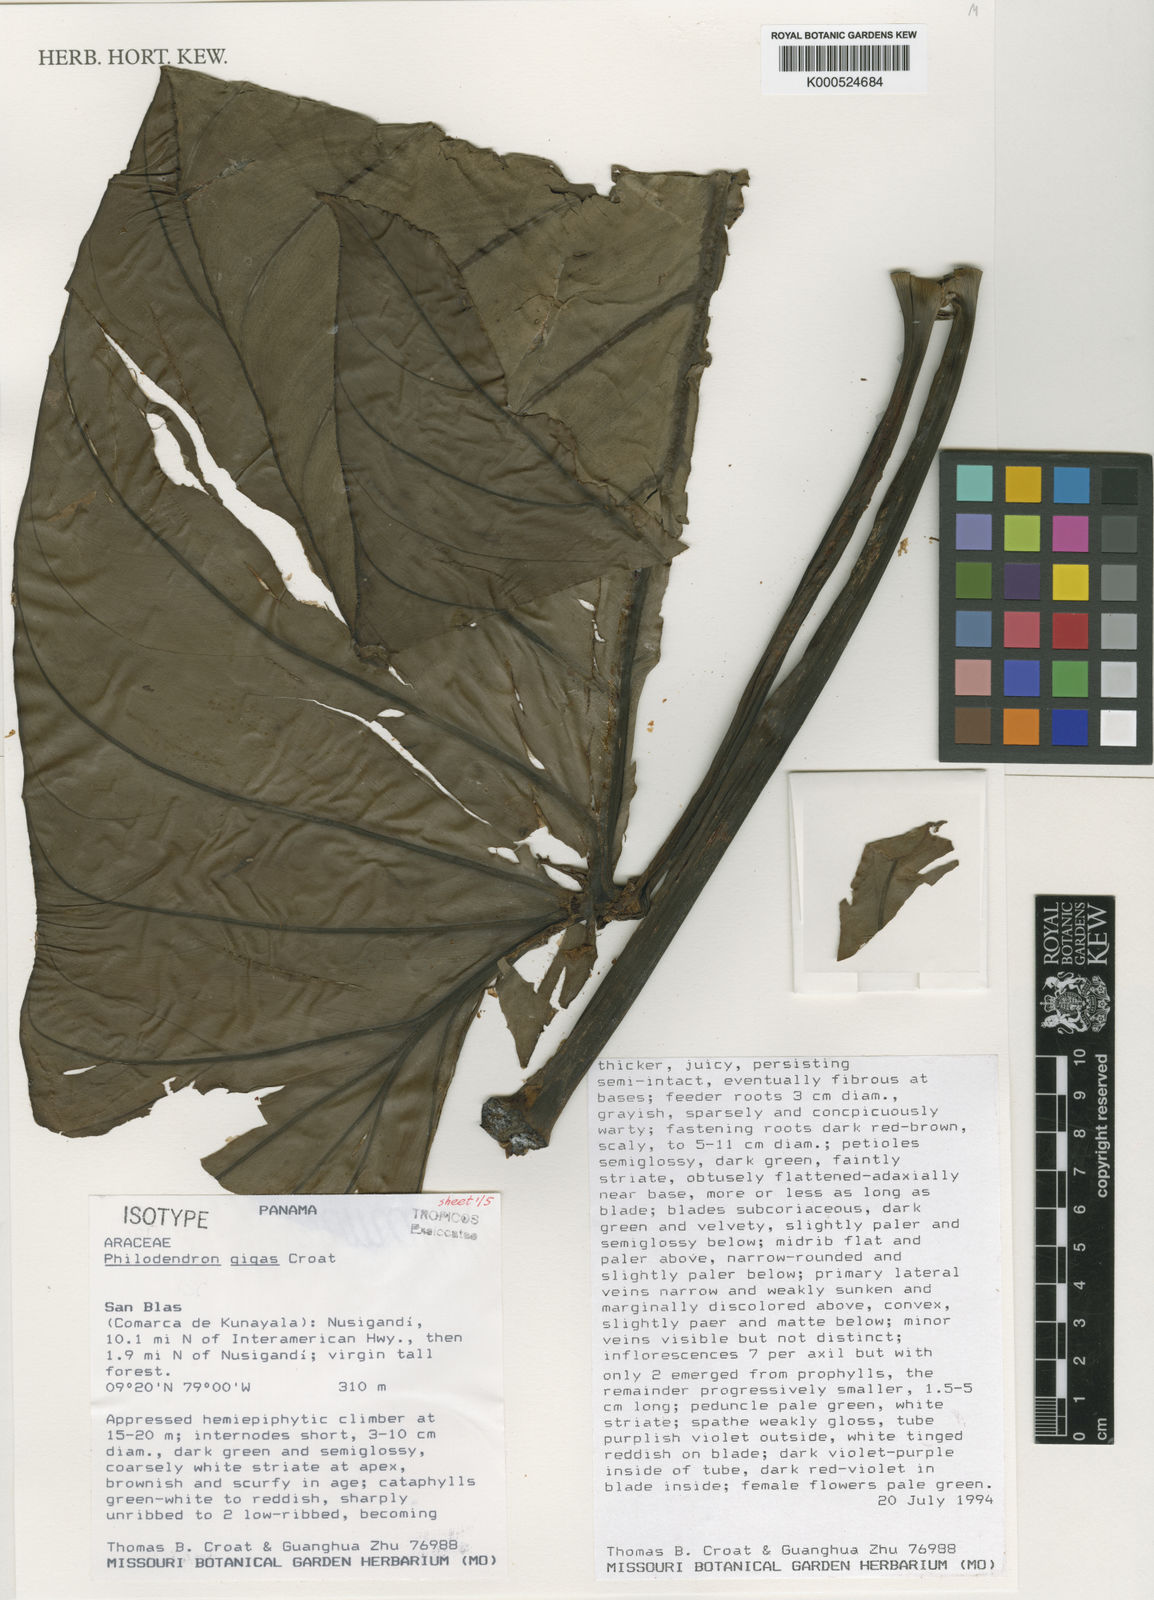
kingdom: Plantae
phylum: Tracheophyta
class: Liliopsida
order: Alismatales
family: Araceae
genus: Philodendron
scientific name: Philodendron gigas
